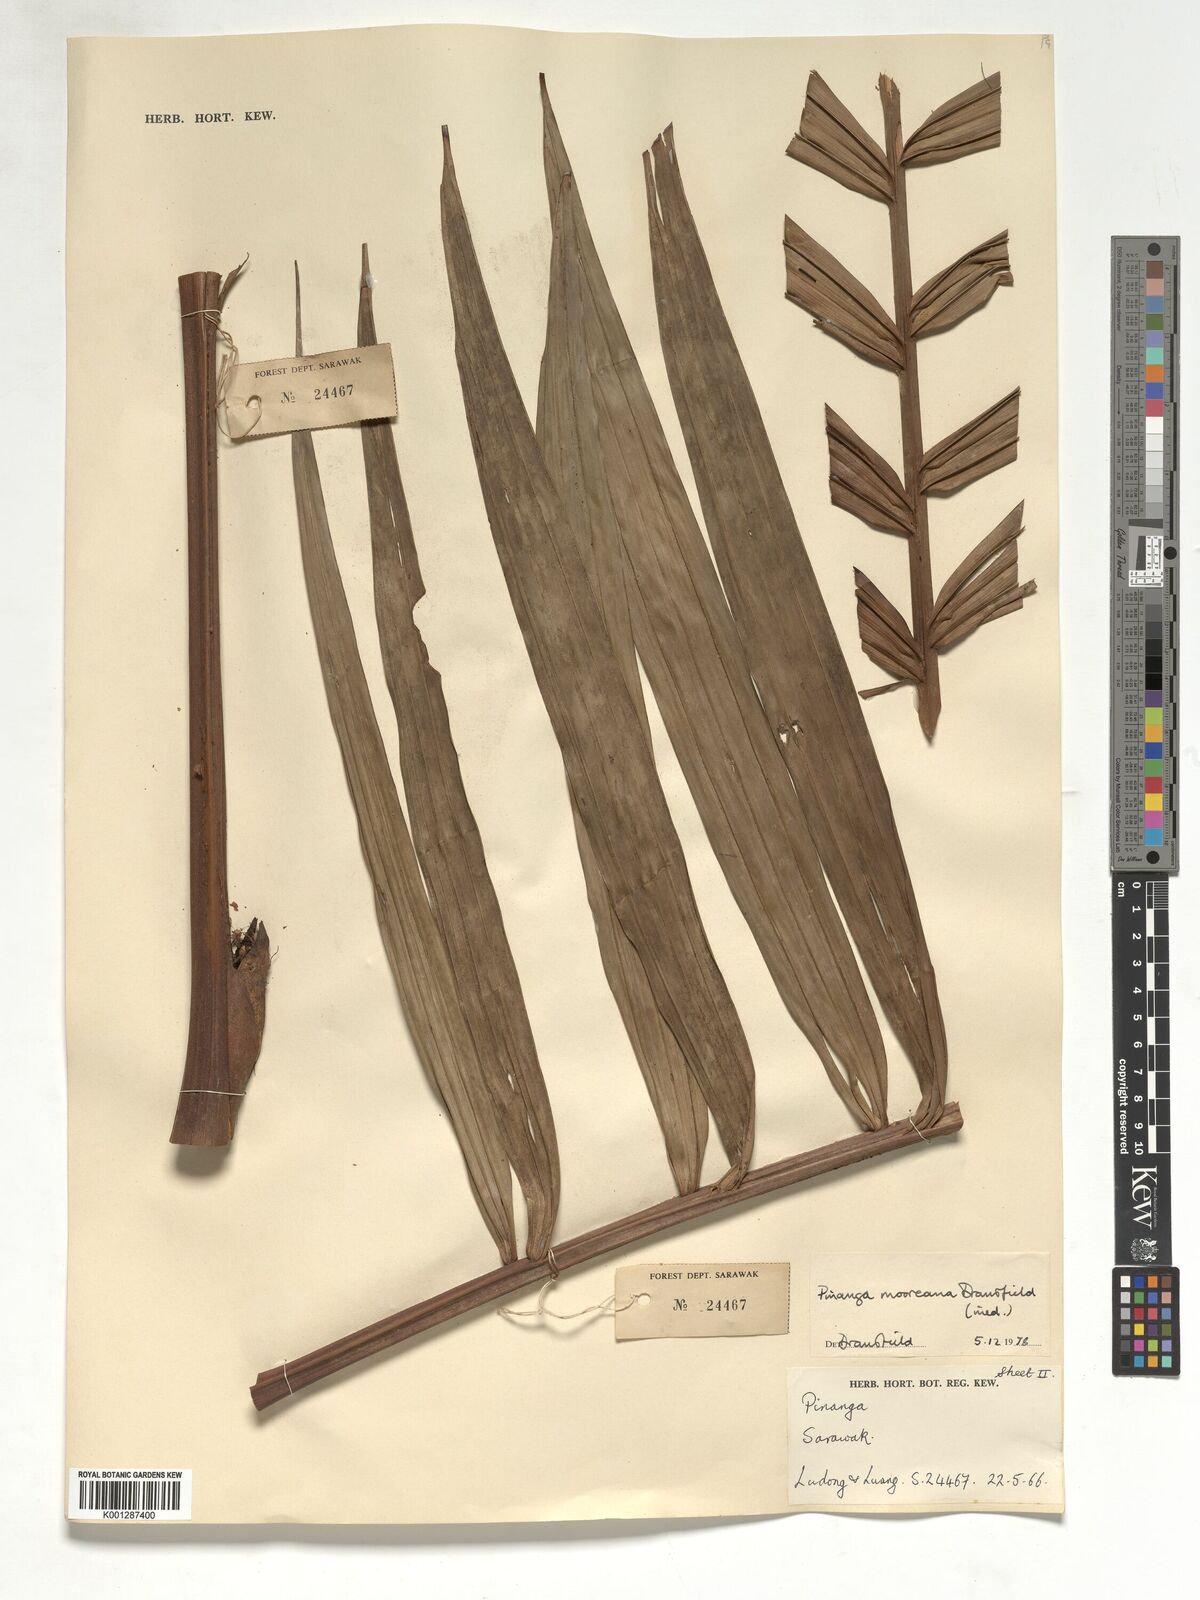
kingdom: Plantae
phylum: Tracheophyta
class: Liliopsida
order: Arecales
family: Arecaceae
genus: Pinanga
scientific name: Pinanga mooreana
